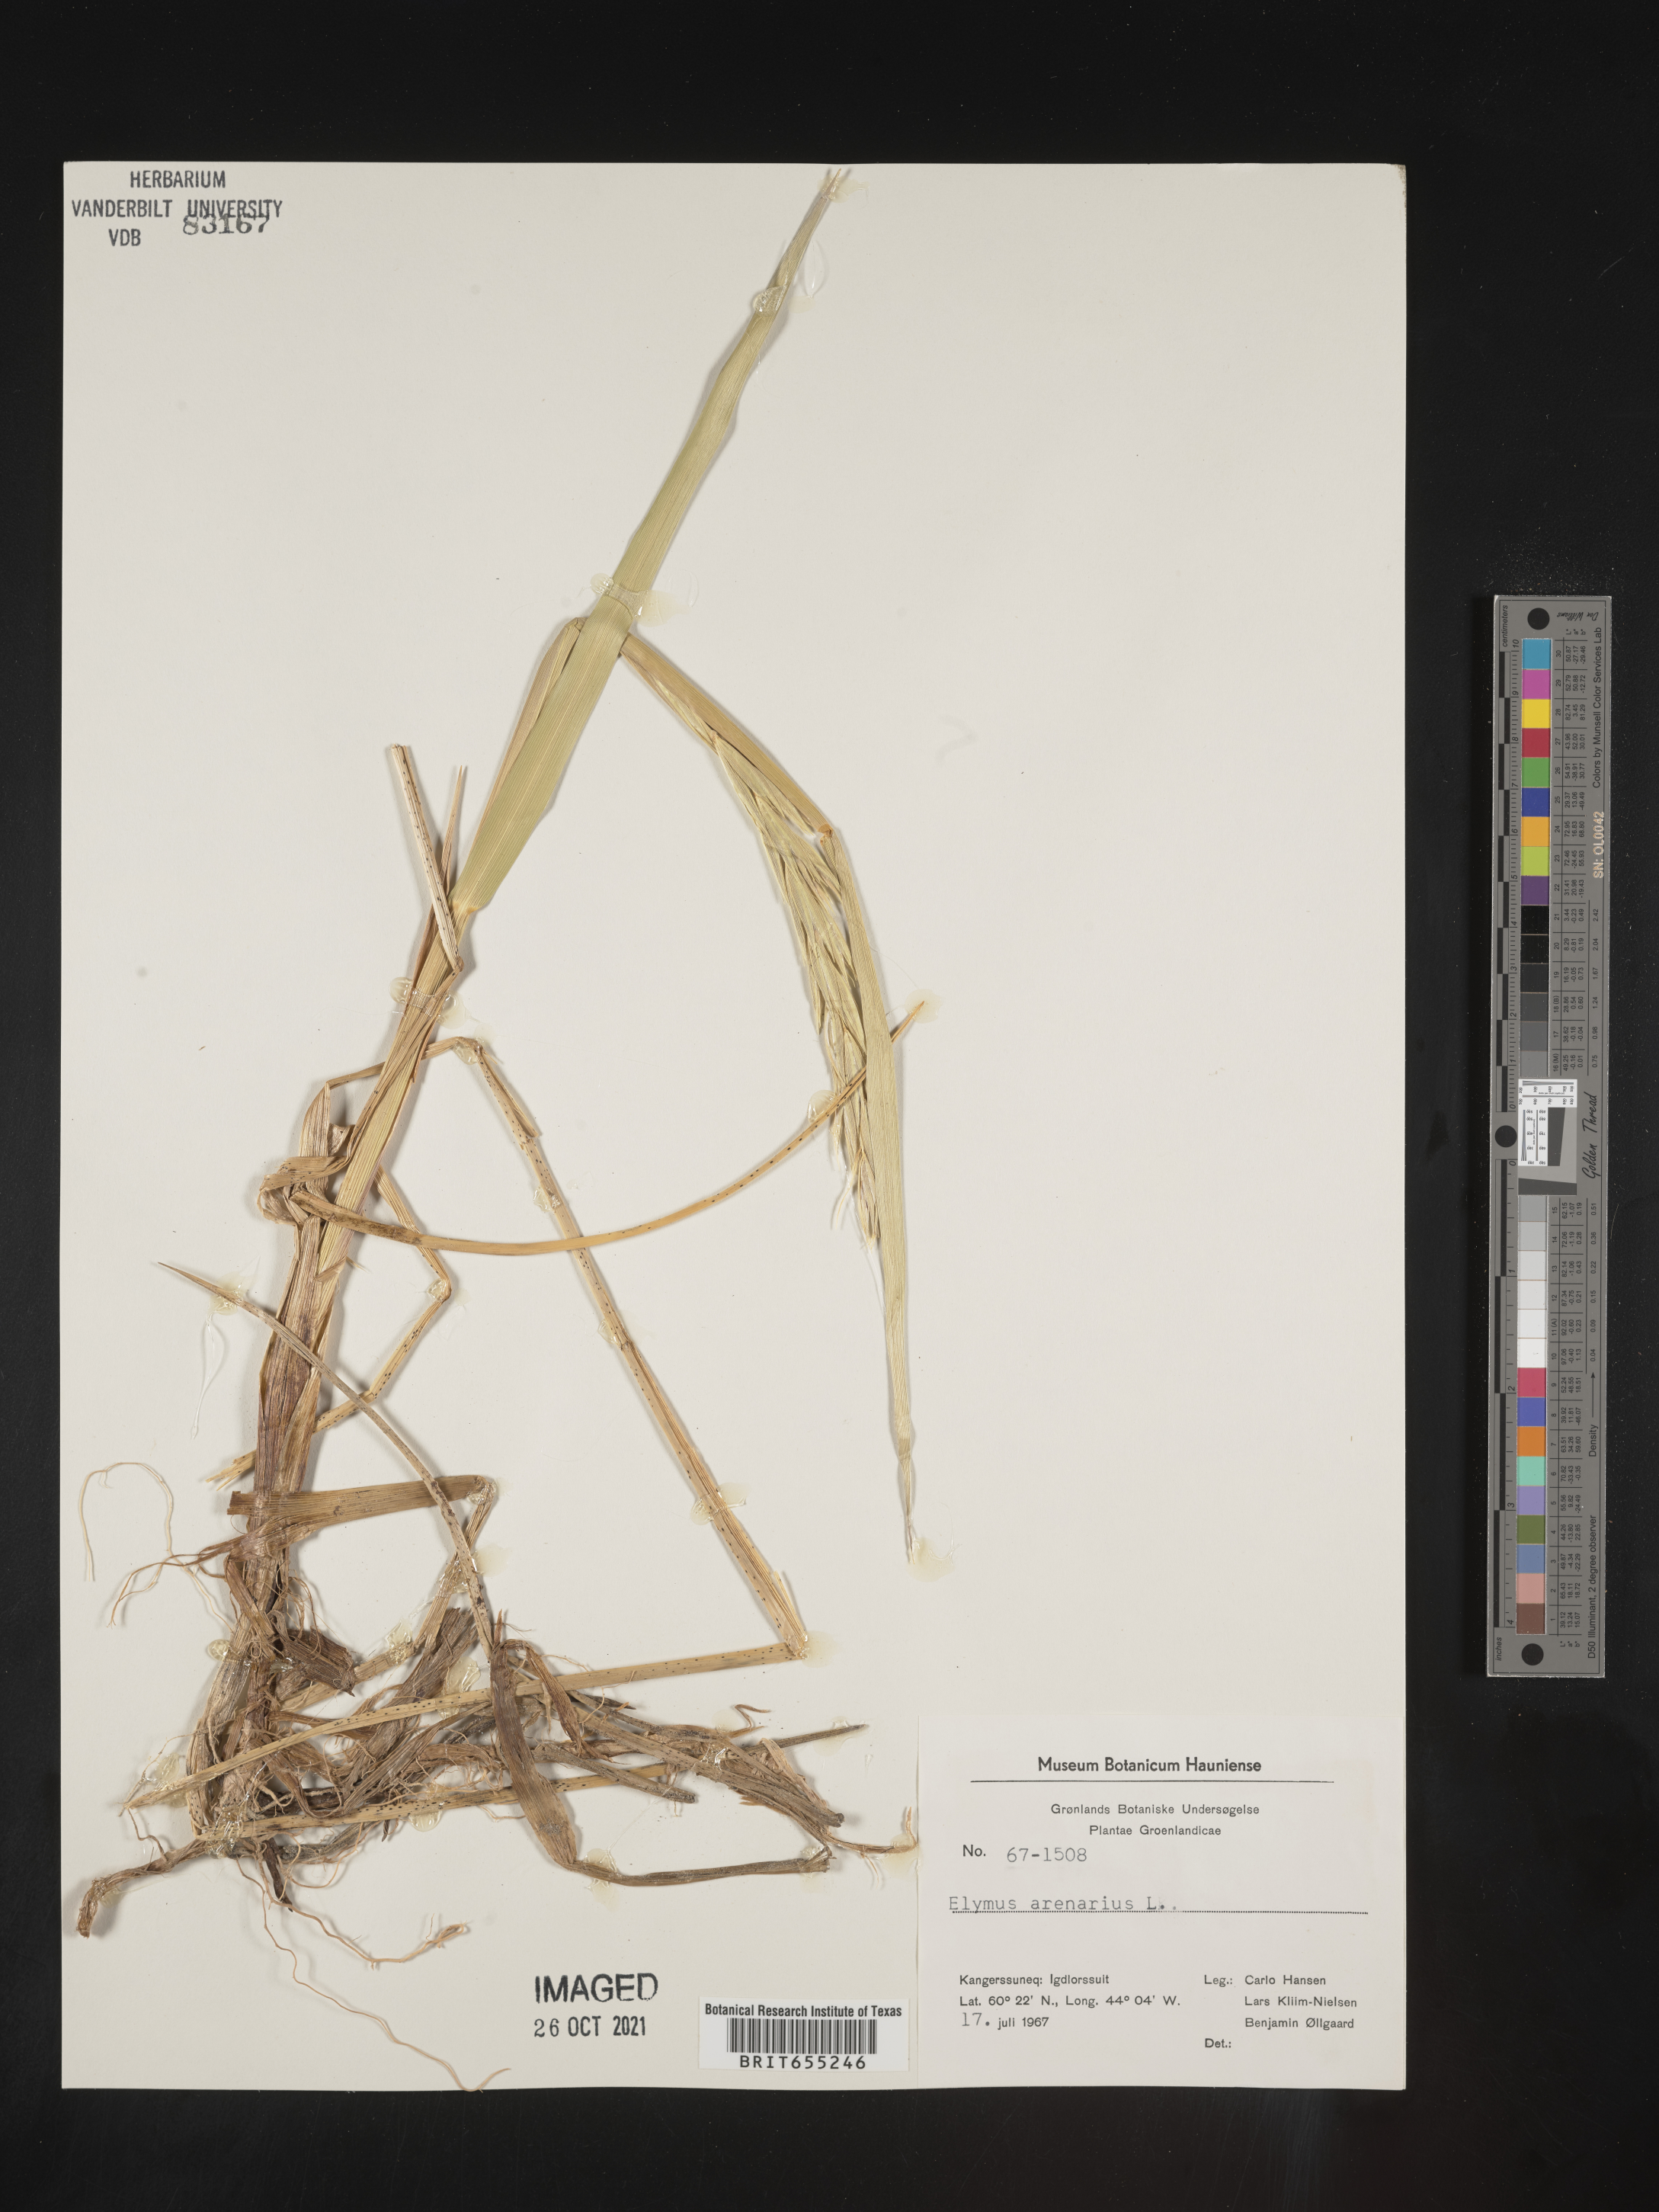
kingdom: Plantae
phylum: Tracheophyta
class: Liliopsida
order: Poales
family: Poaceae
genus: Elymus
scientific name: Elymus
